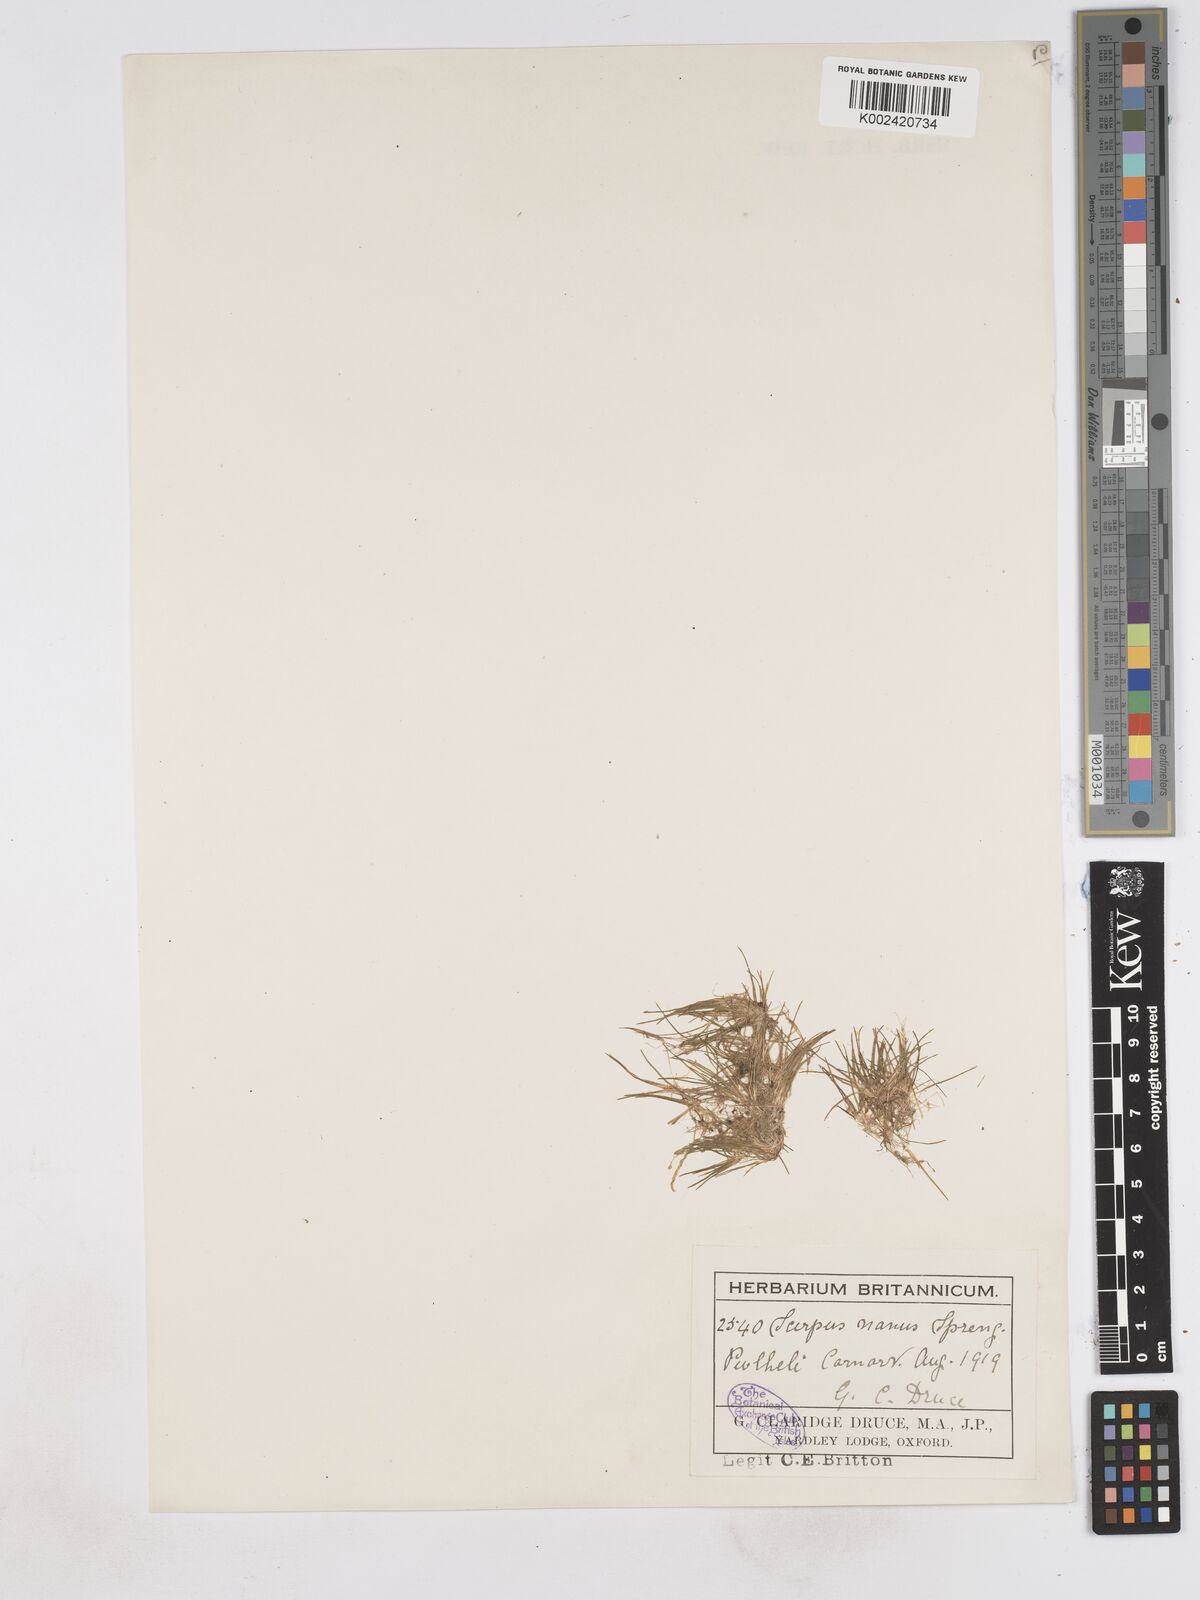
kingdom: Plantae
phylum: Tracheophyta
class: Liliopsida
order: Poales
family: Cyperaceae
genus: Eleocharis
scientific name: Eleocharis parvula
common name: Dwarf spike-rush
